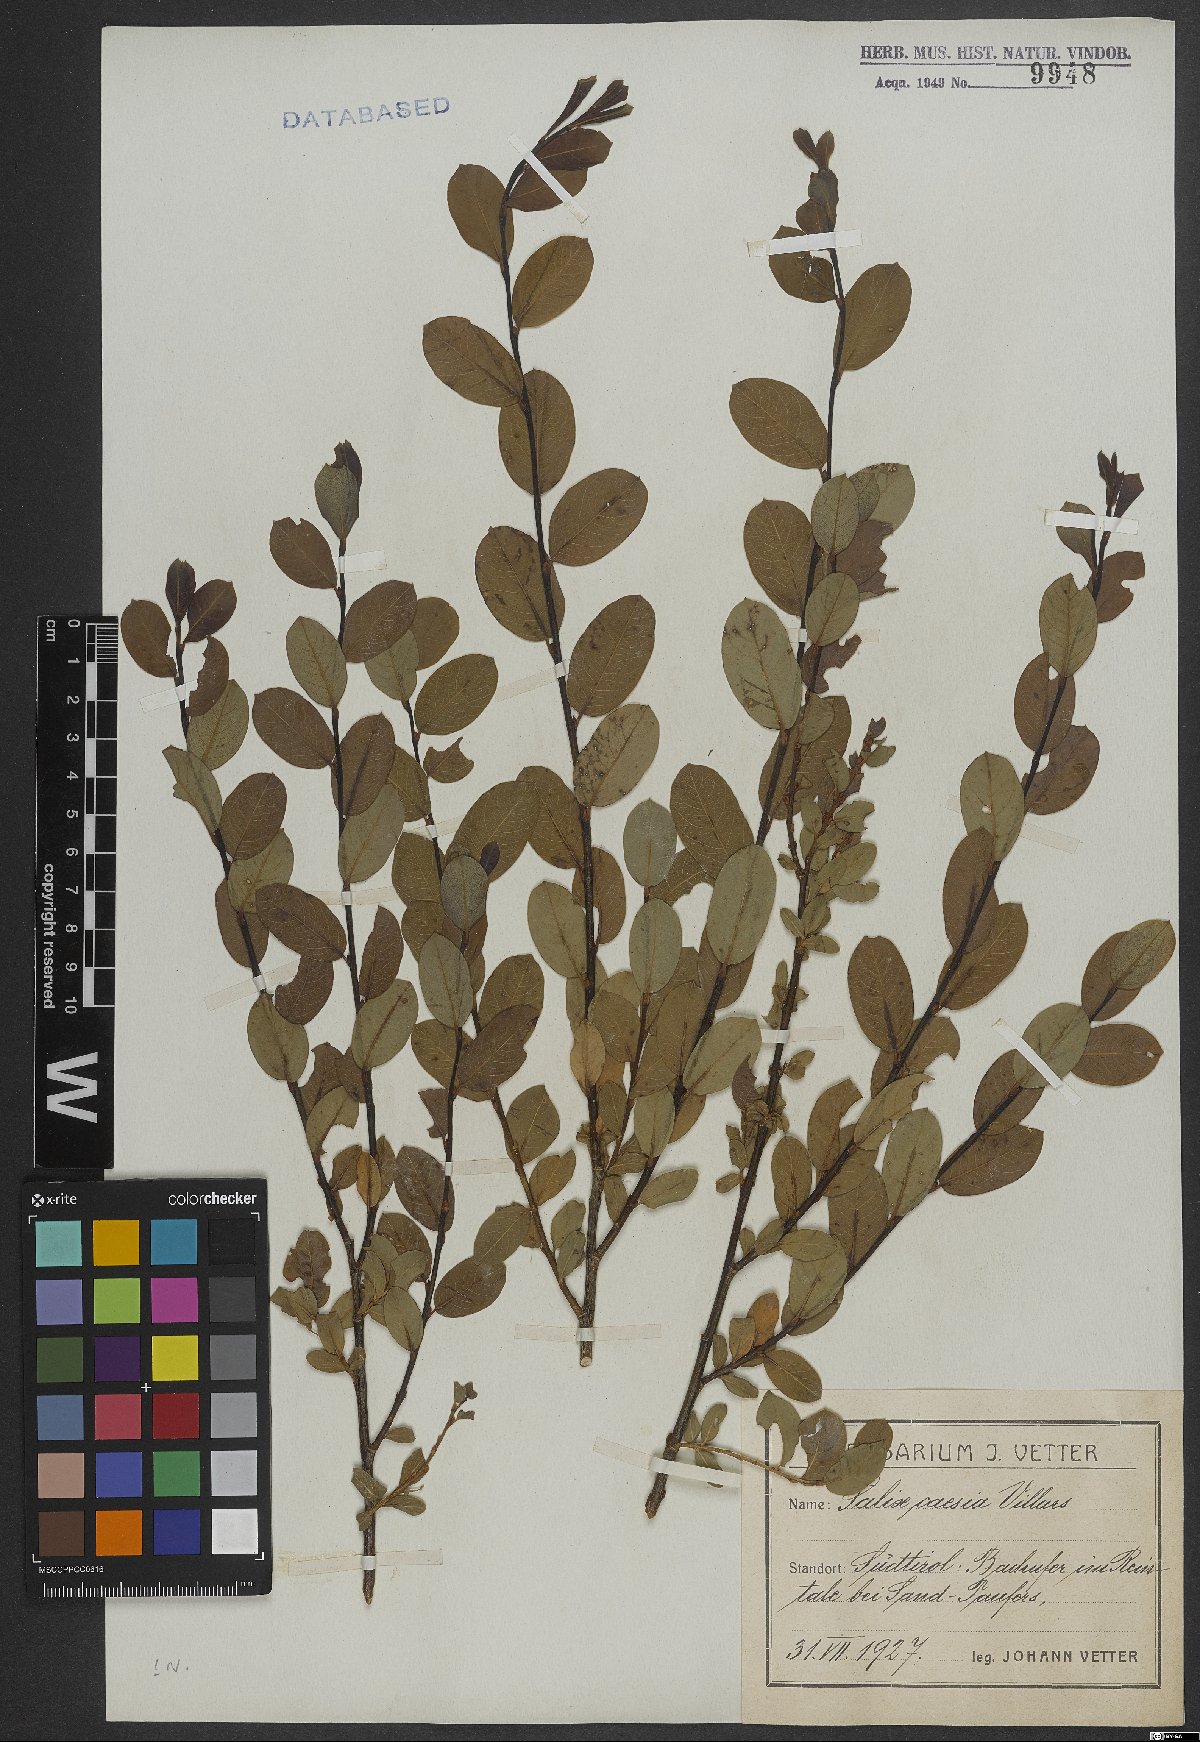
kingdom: Plantae
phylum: Tracheophyta
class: Magnoliopsida
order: Malpighiales
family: Salicaceae
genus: Salix
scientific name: Salix caesia
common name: Blue willow
